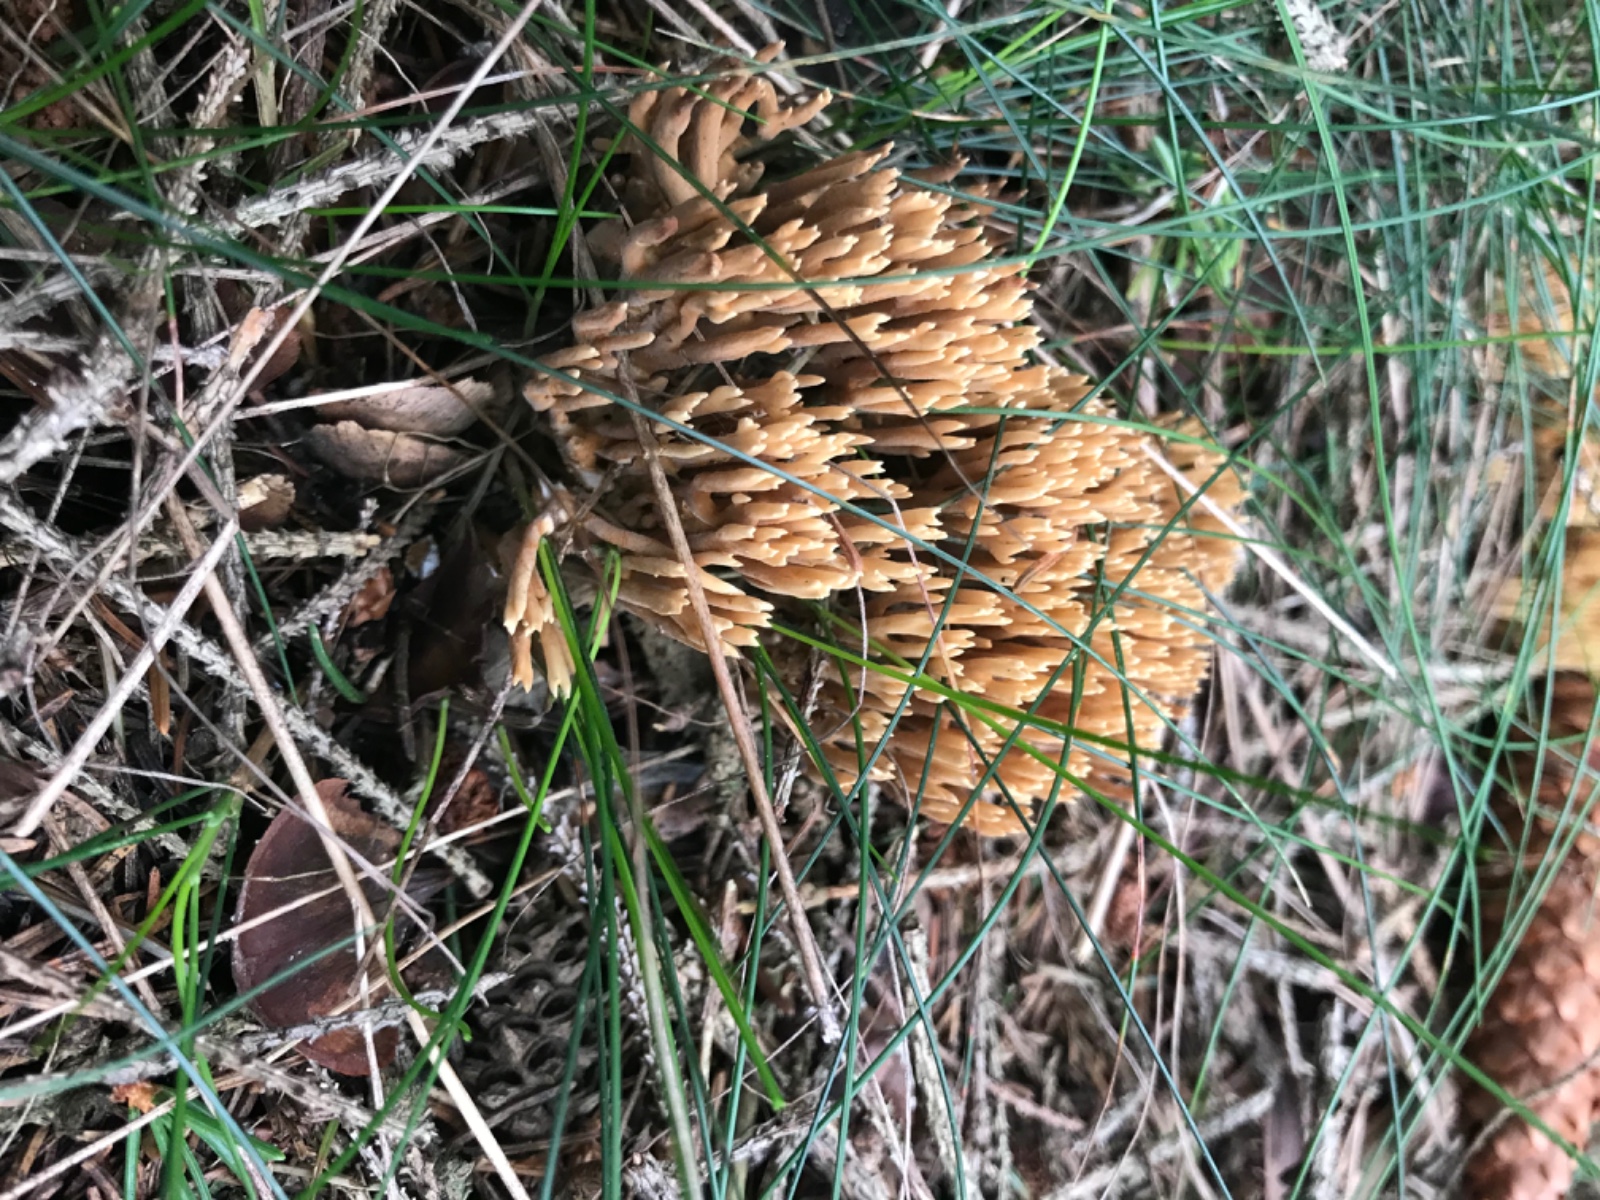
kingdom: Fungi
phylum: Basidiomycota
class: Agaricomycetes
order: Gomphales
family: Gomphaceae
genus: Phaeoclavulina
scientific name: Phaeoclavulina eumorpha
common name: gran-koralsvamp
